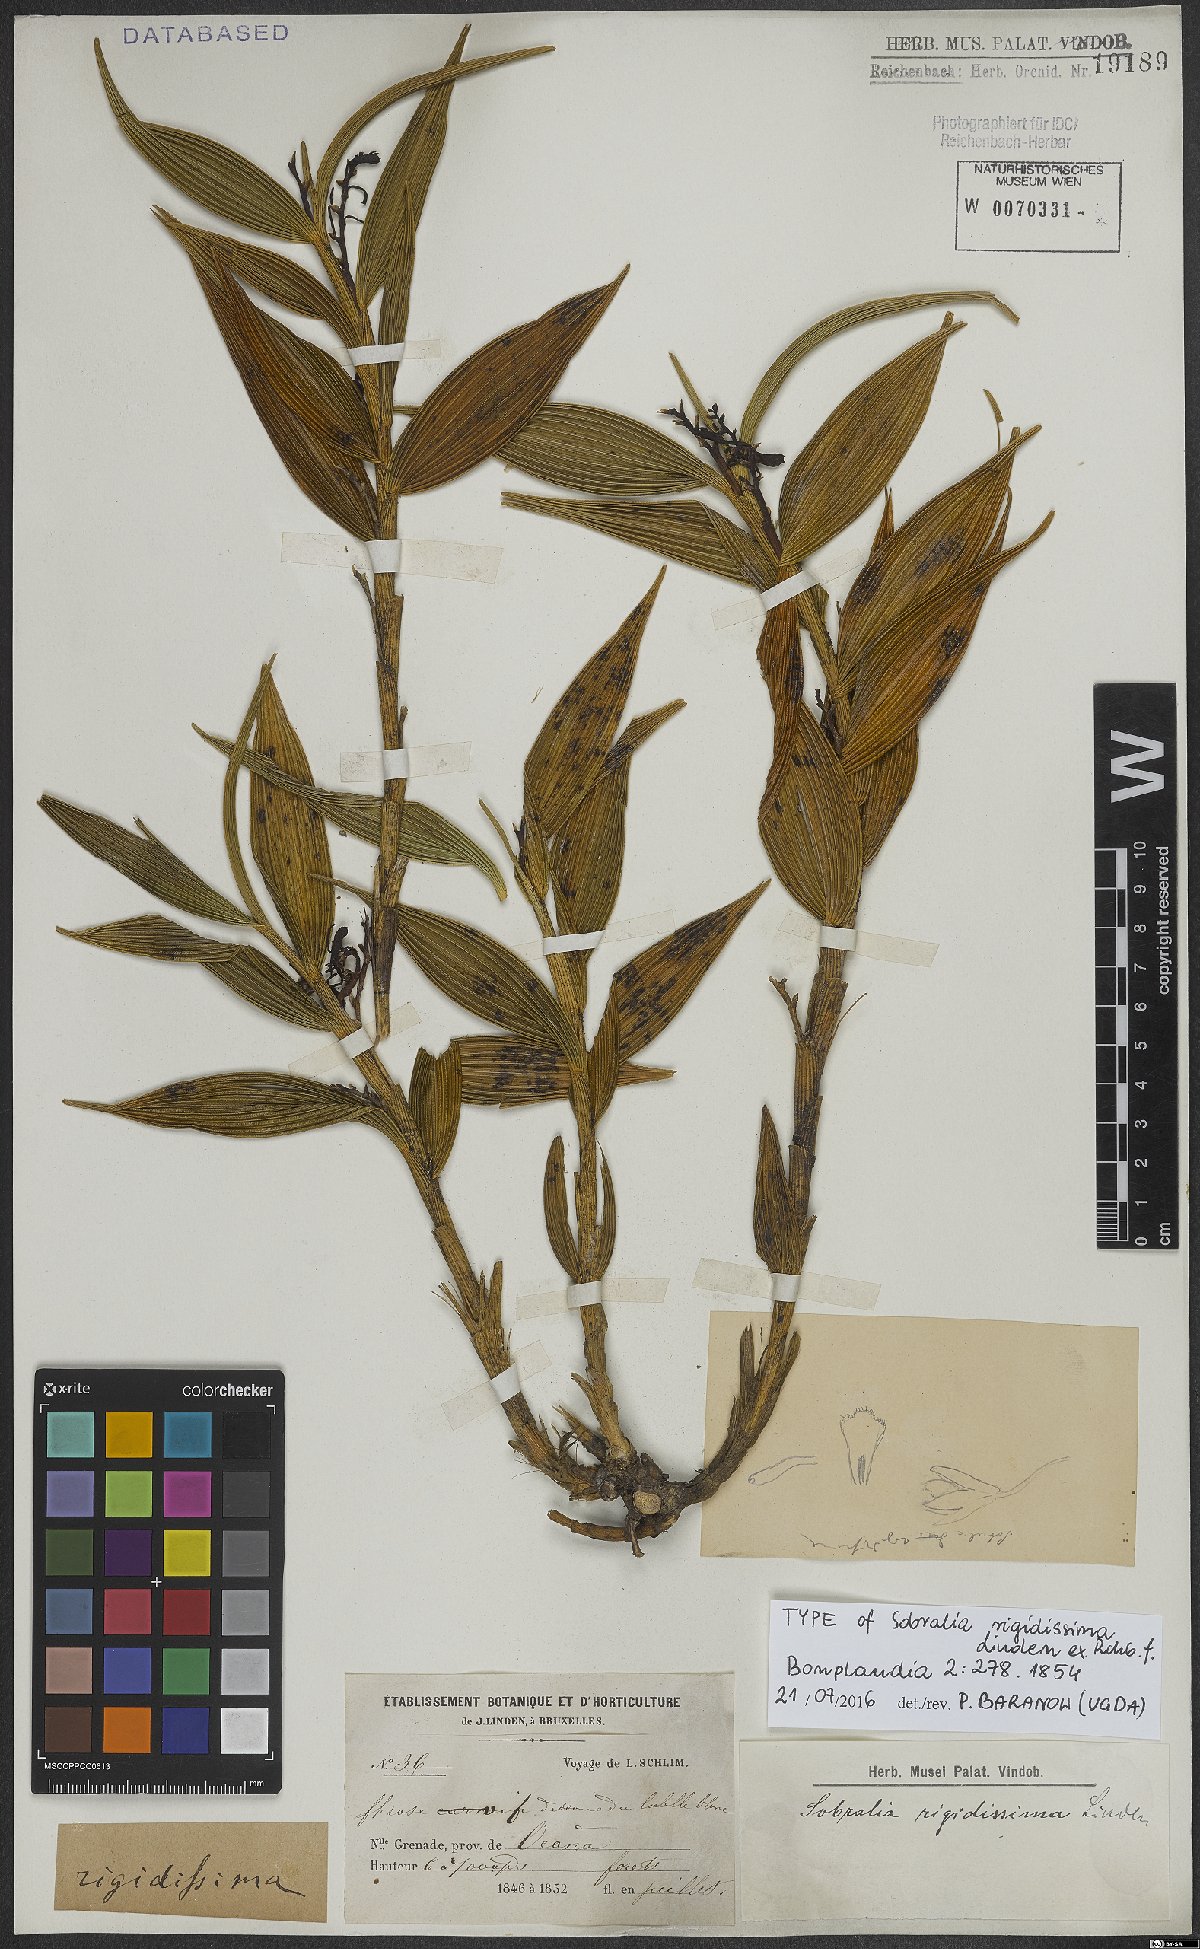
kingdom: Plantae
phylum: Tracheophyta
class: Liliopsida
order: Asparagales
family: Orchidaceae
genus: Sobralia
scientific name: Sobralia rigidissima
